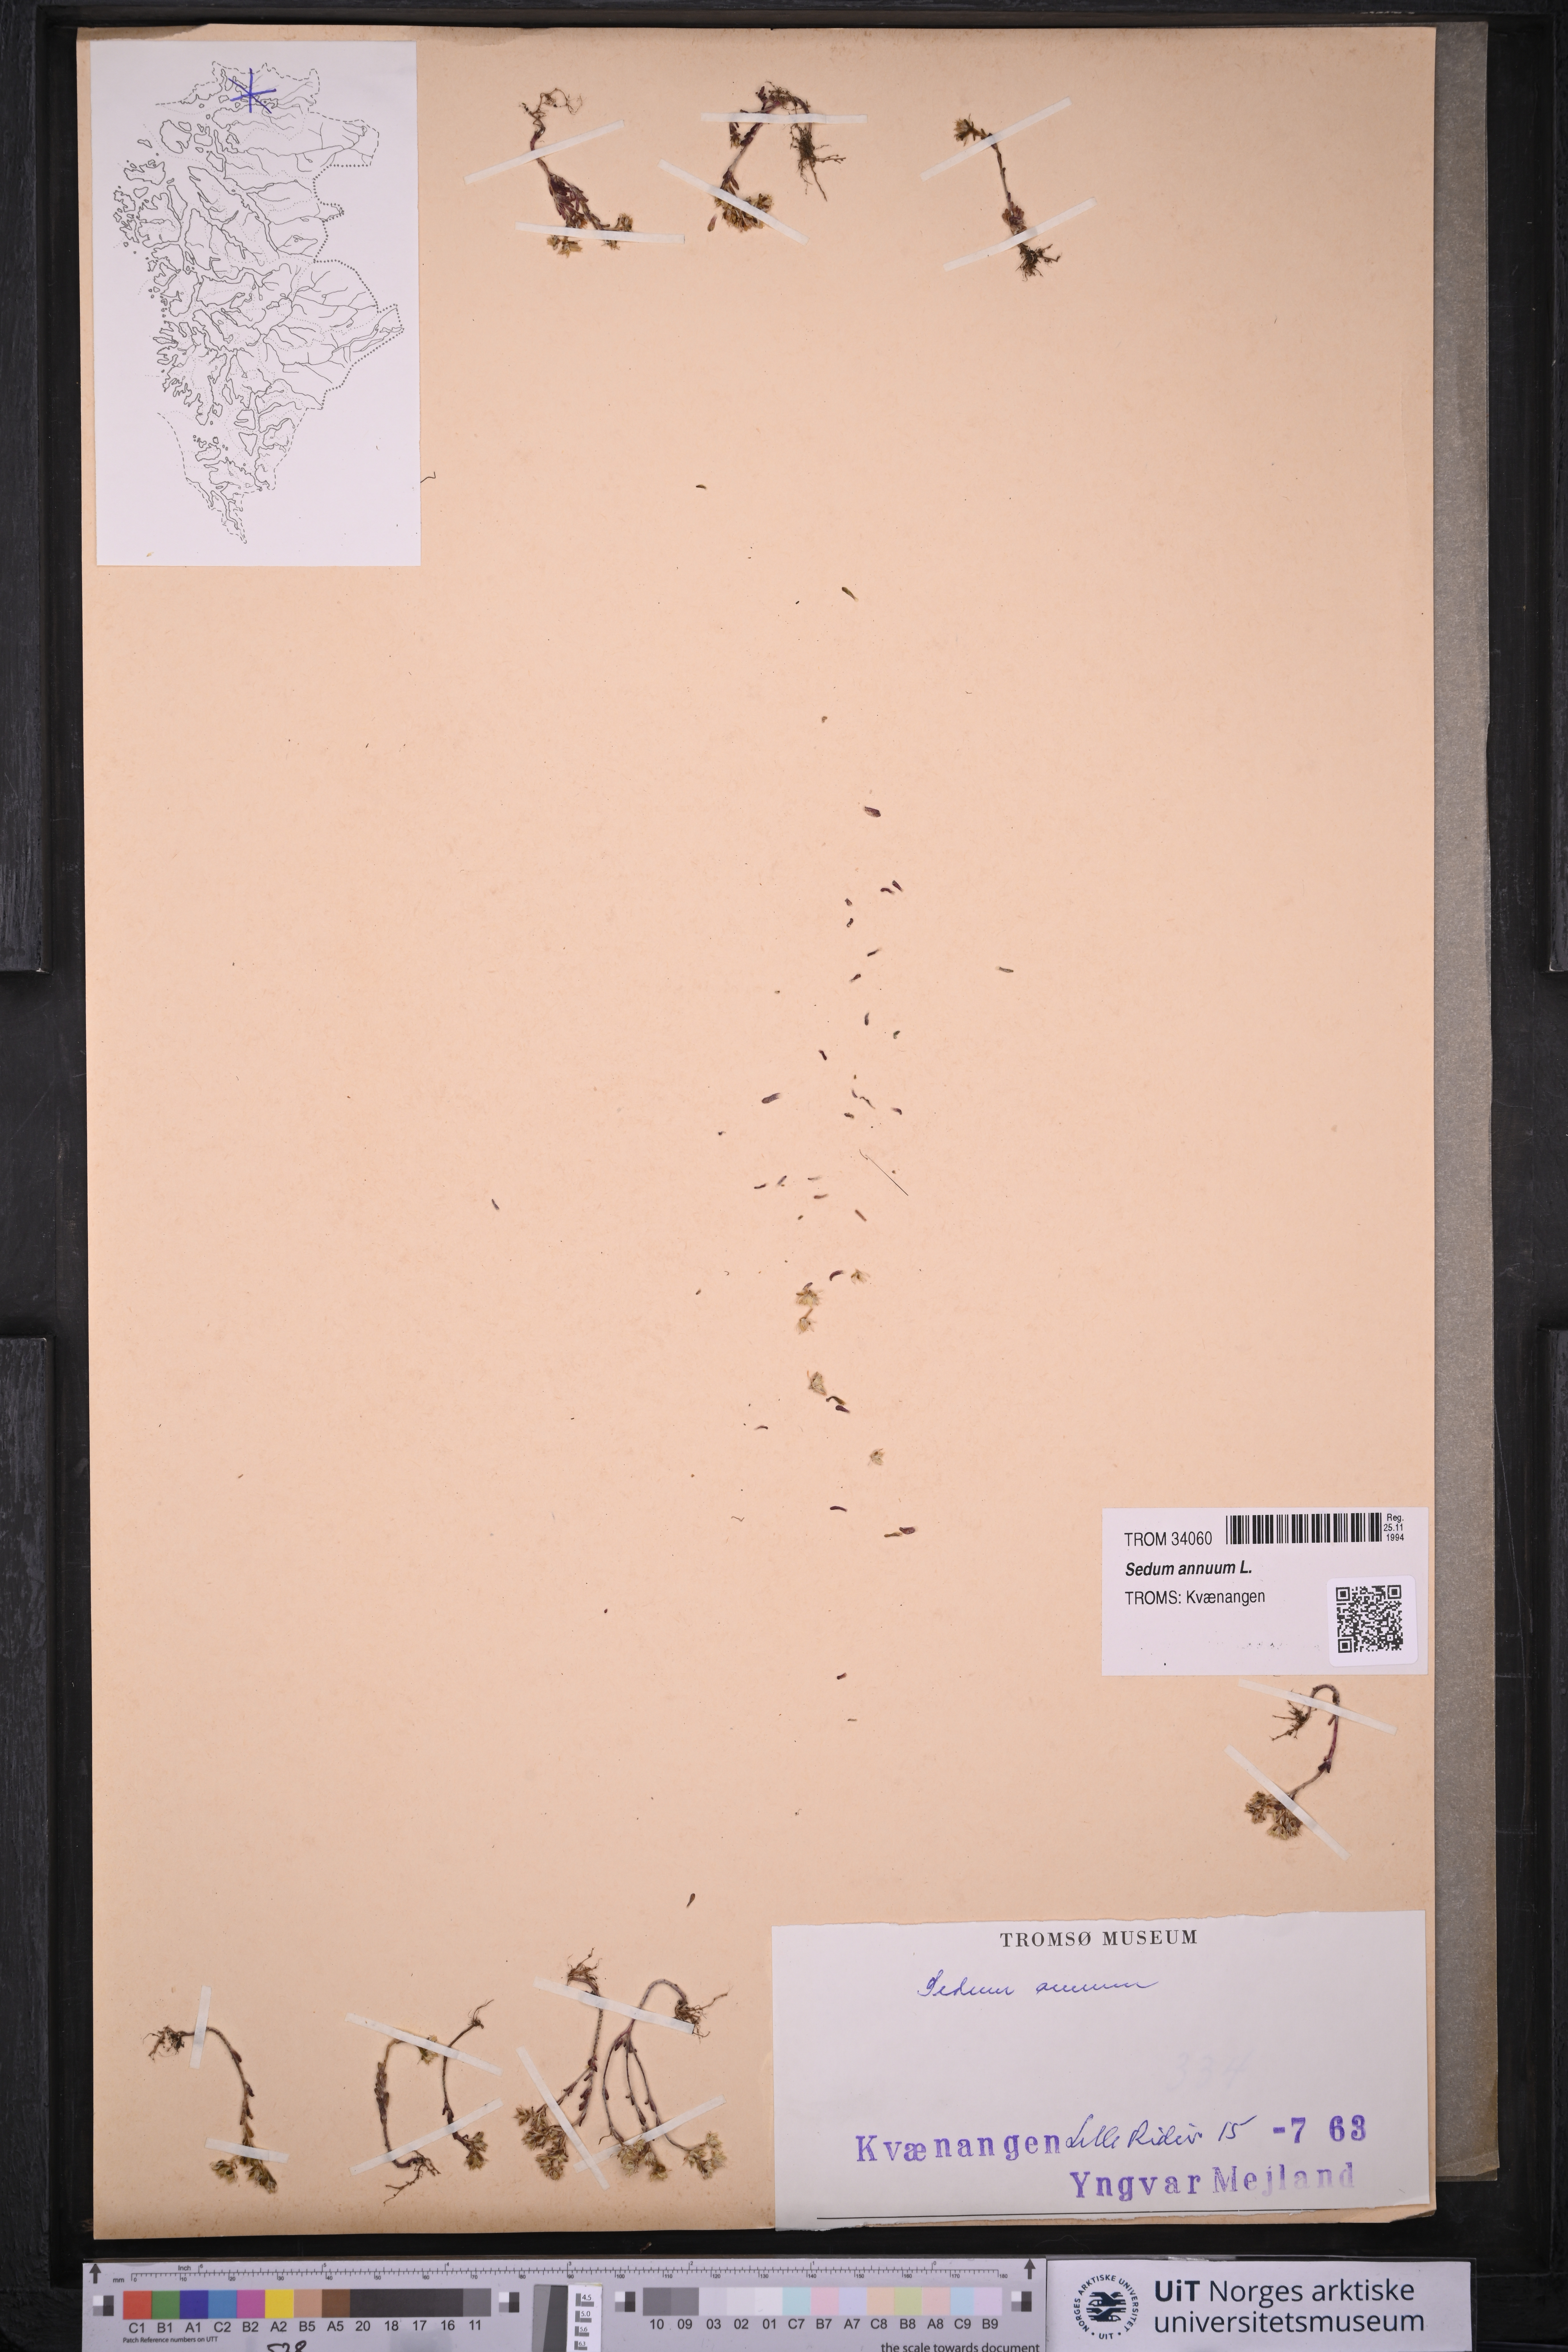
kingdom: Plantae
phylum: Tracheophyta
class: Magnoliopsida
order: Saxifragales
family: Crassulaceae
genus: Sedum
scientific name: Sedum annuum
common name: Annual stonecrop
